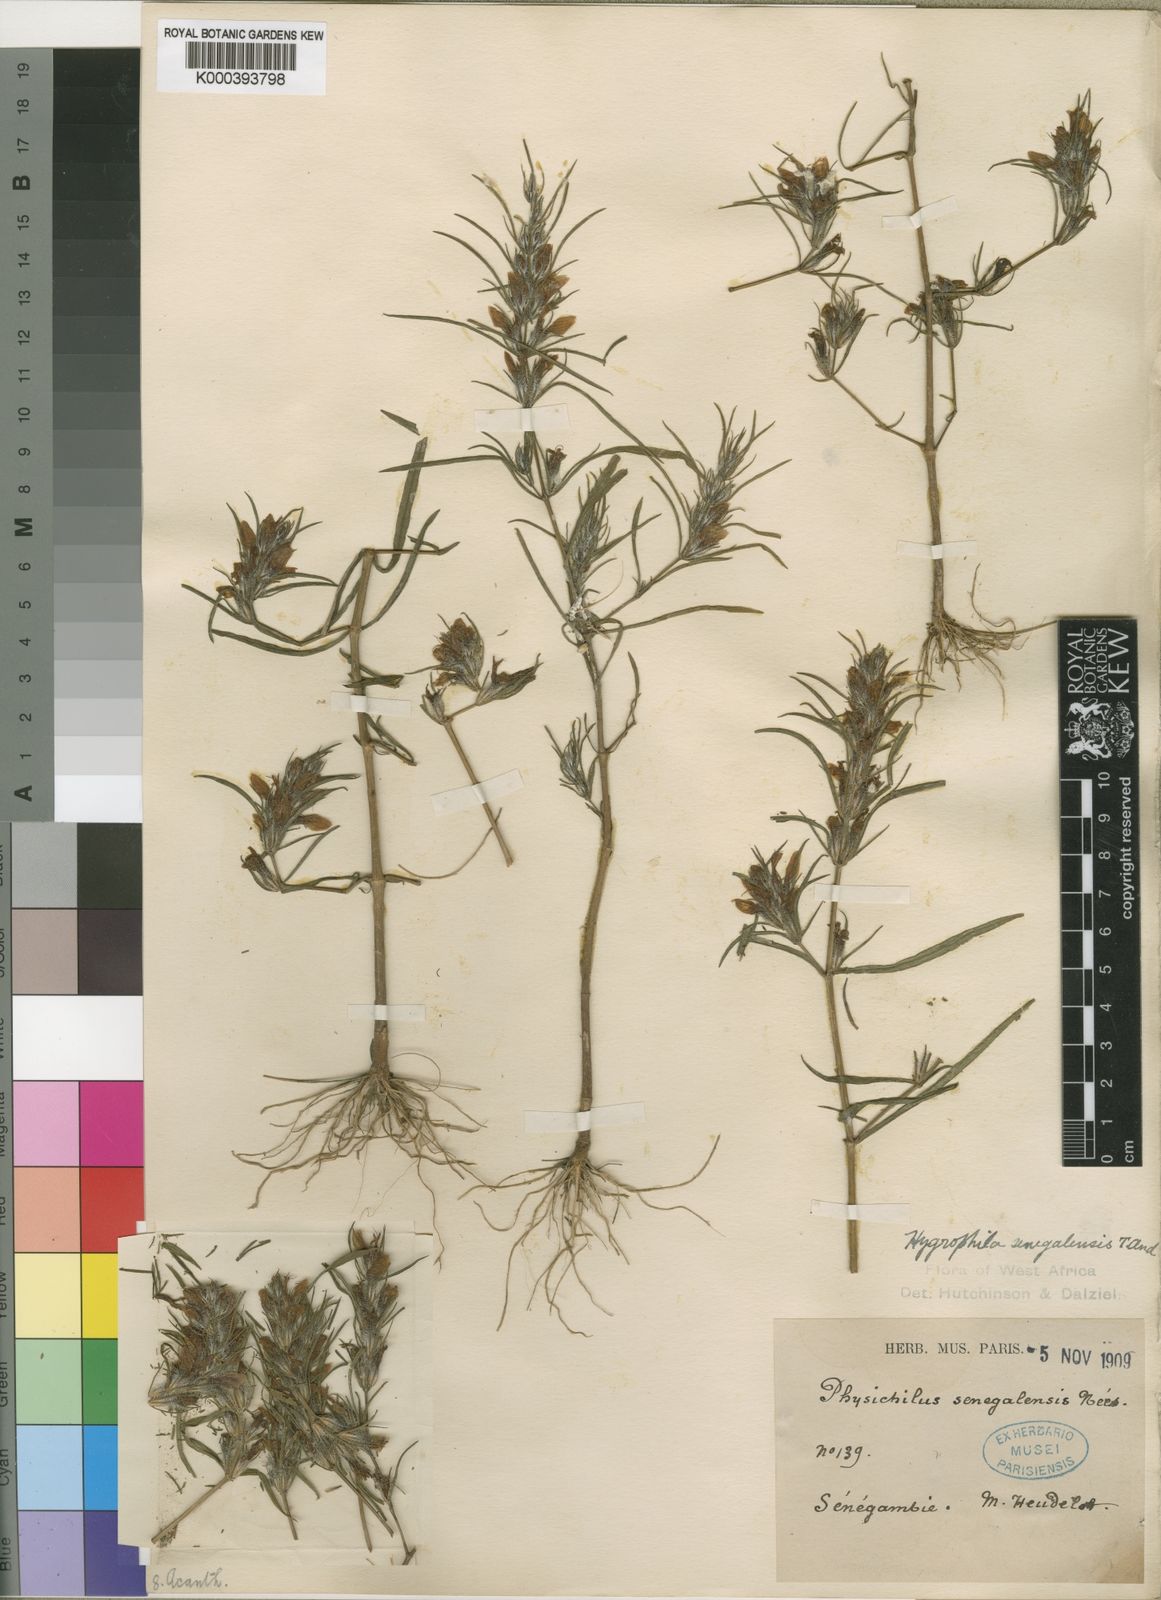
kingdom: Plantae
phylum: Tracheophyta
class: Magnoliopsida
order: Lamiales
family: Acanthaceae
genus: Hygrophila
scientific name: Hygrophila micrantha
